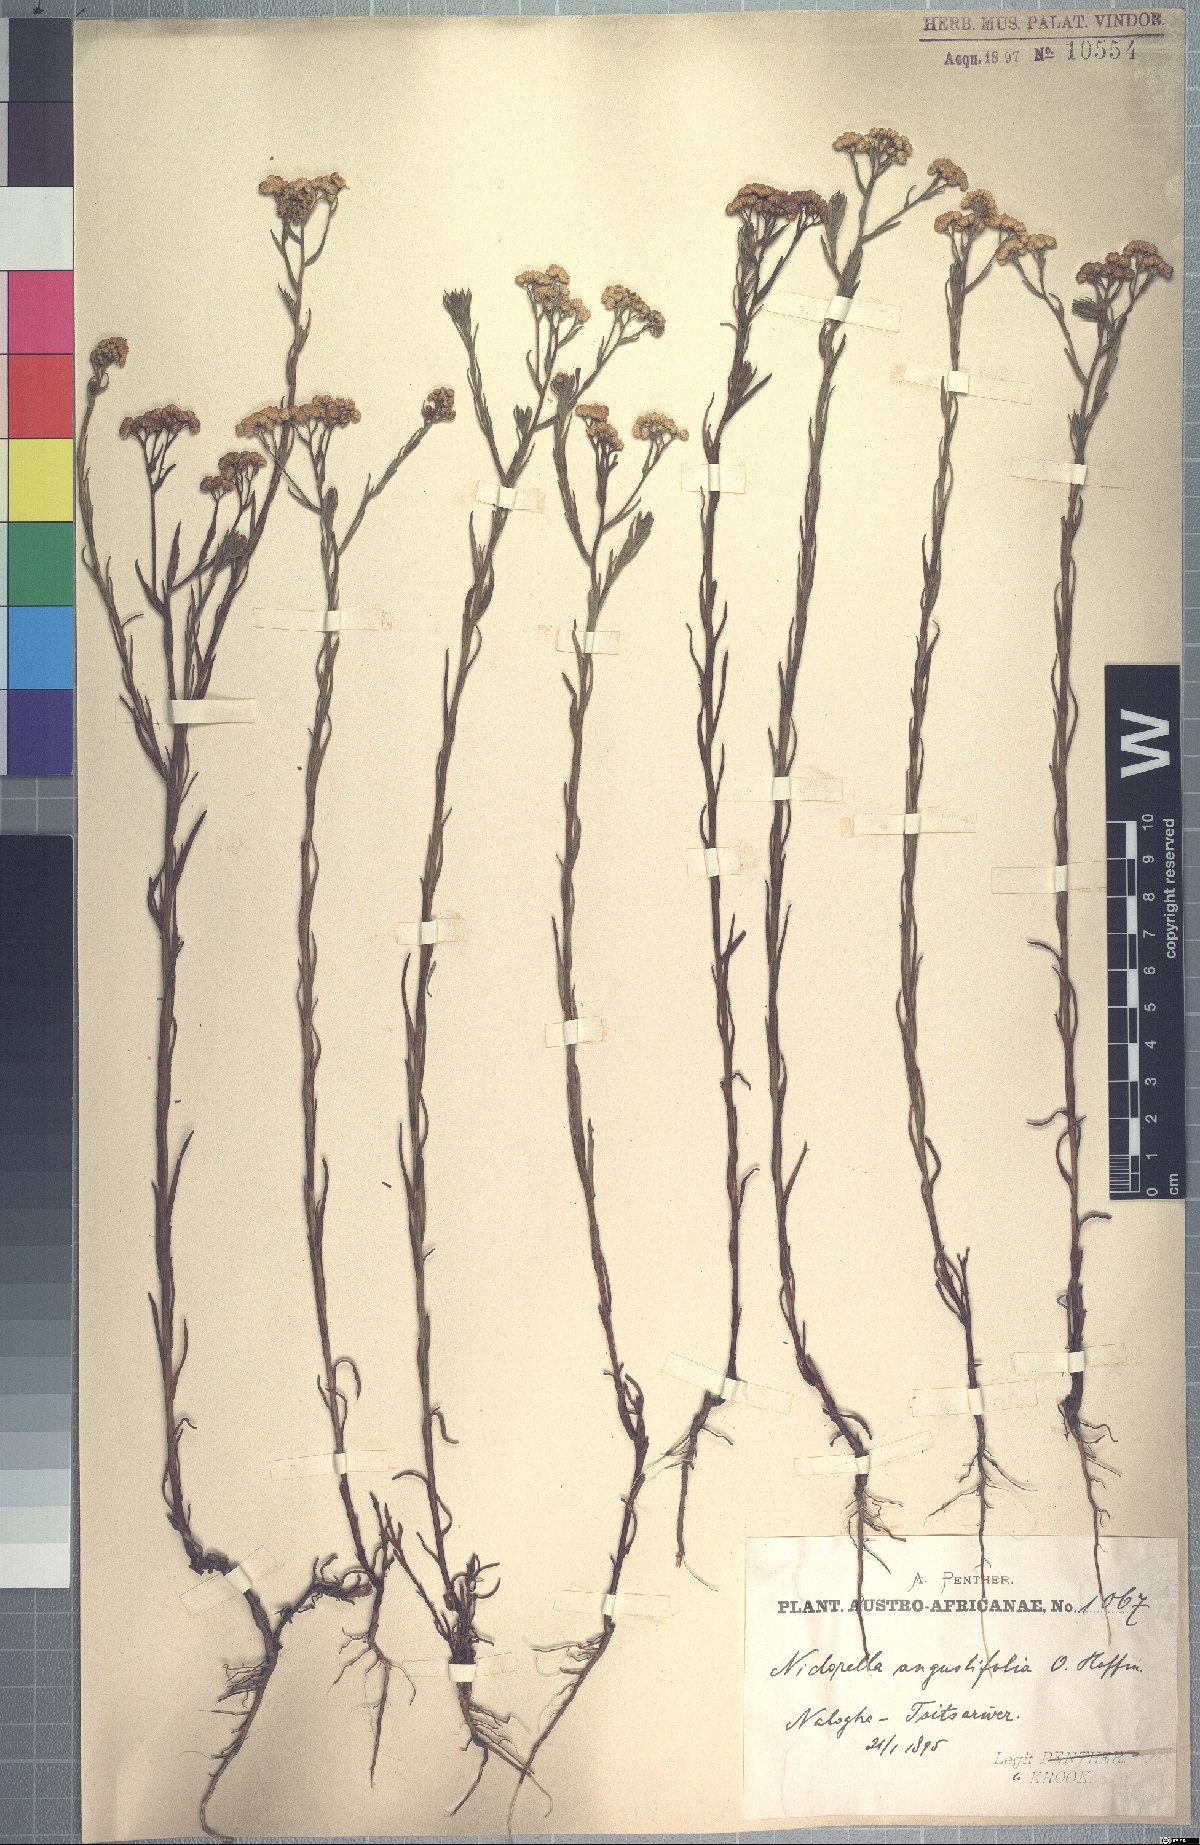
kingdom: Plantae
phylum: Tracheophyta
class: Magnoliopsida
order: Asterales
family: Asteraceae
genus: Nidorella
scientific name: Nidorella anomala
